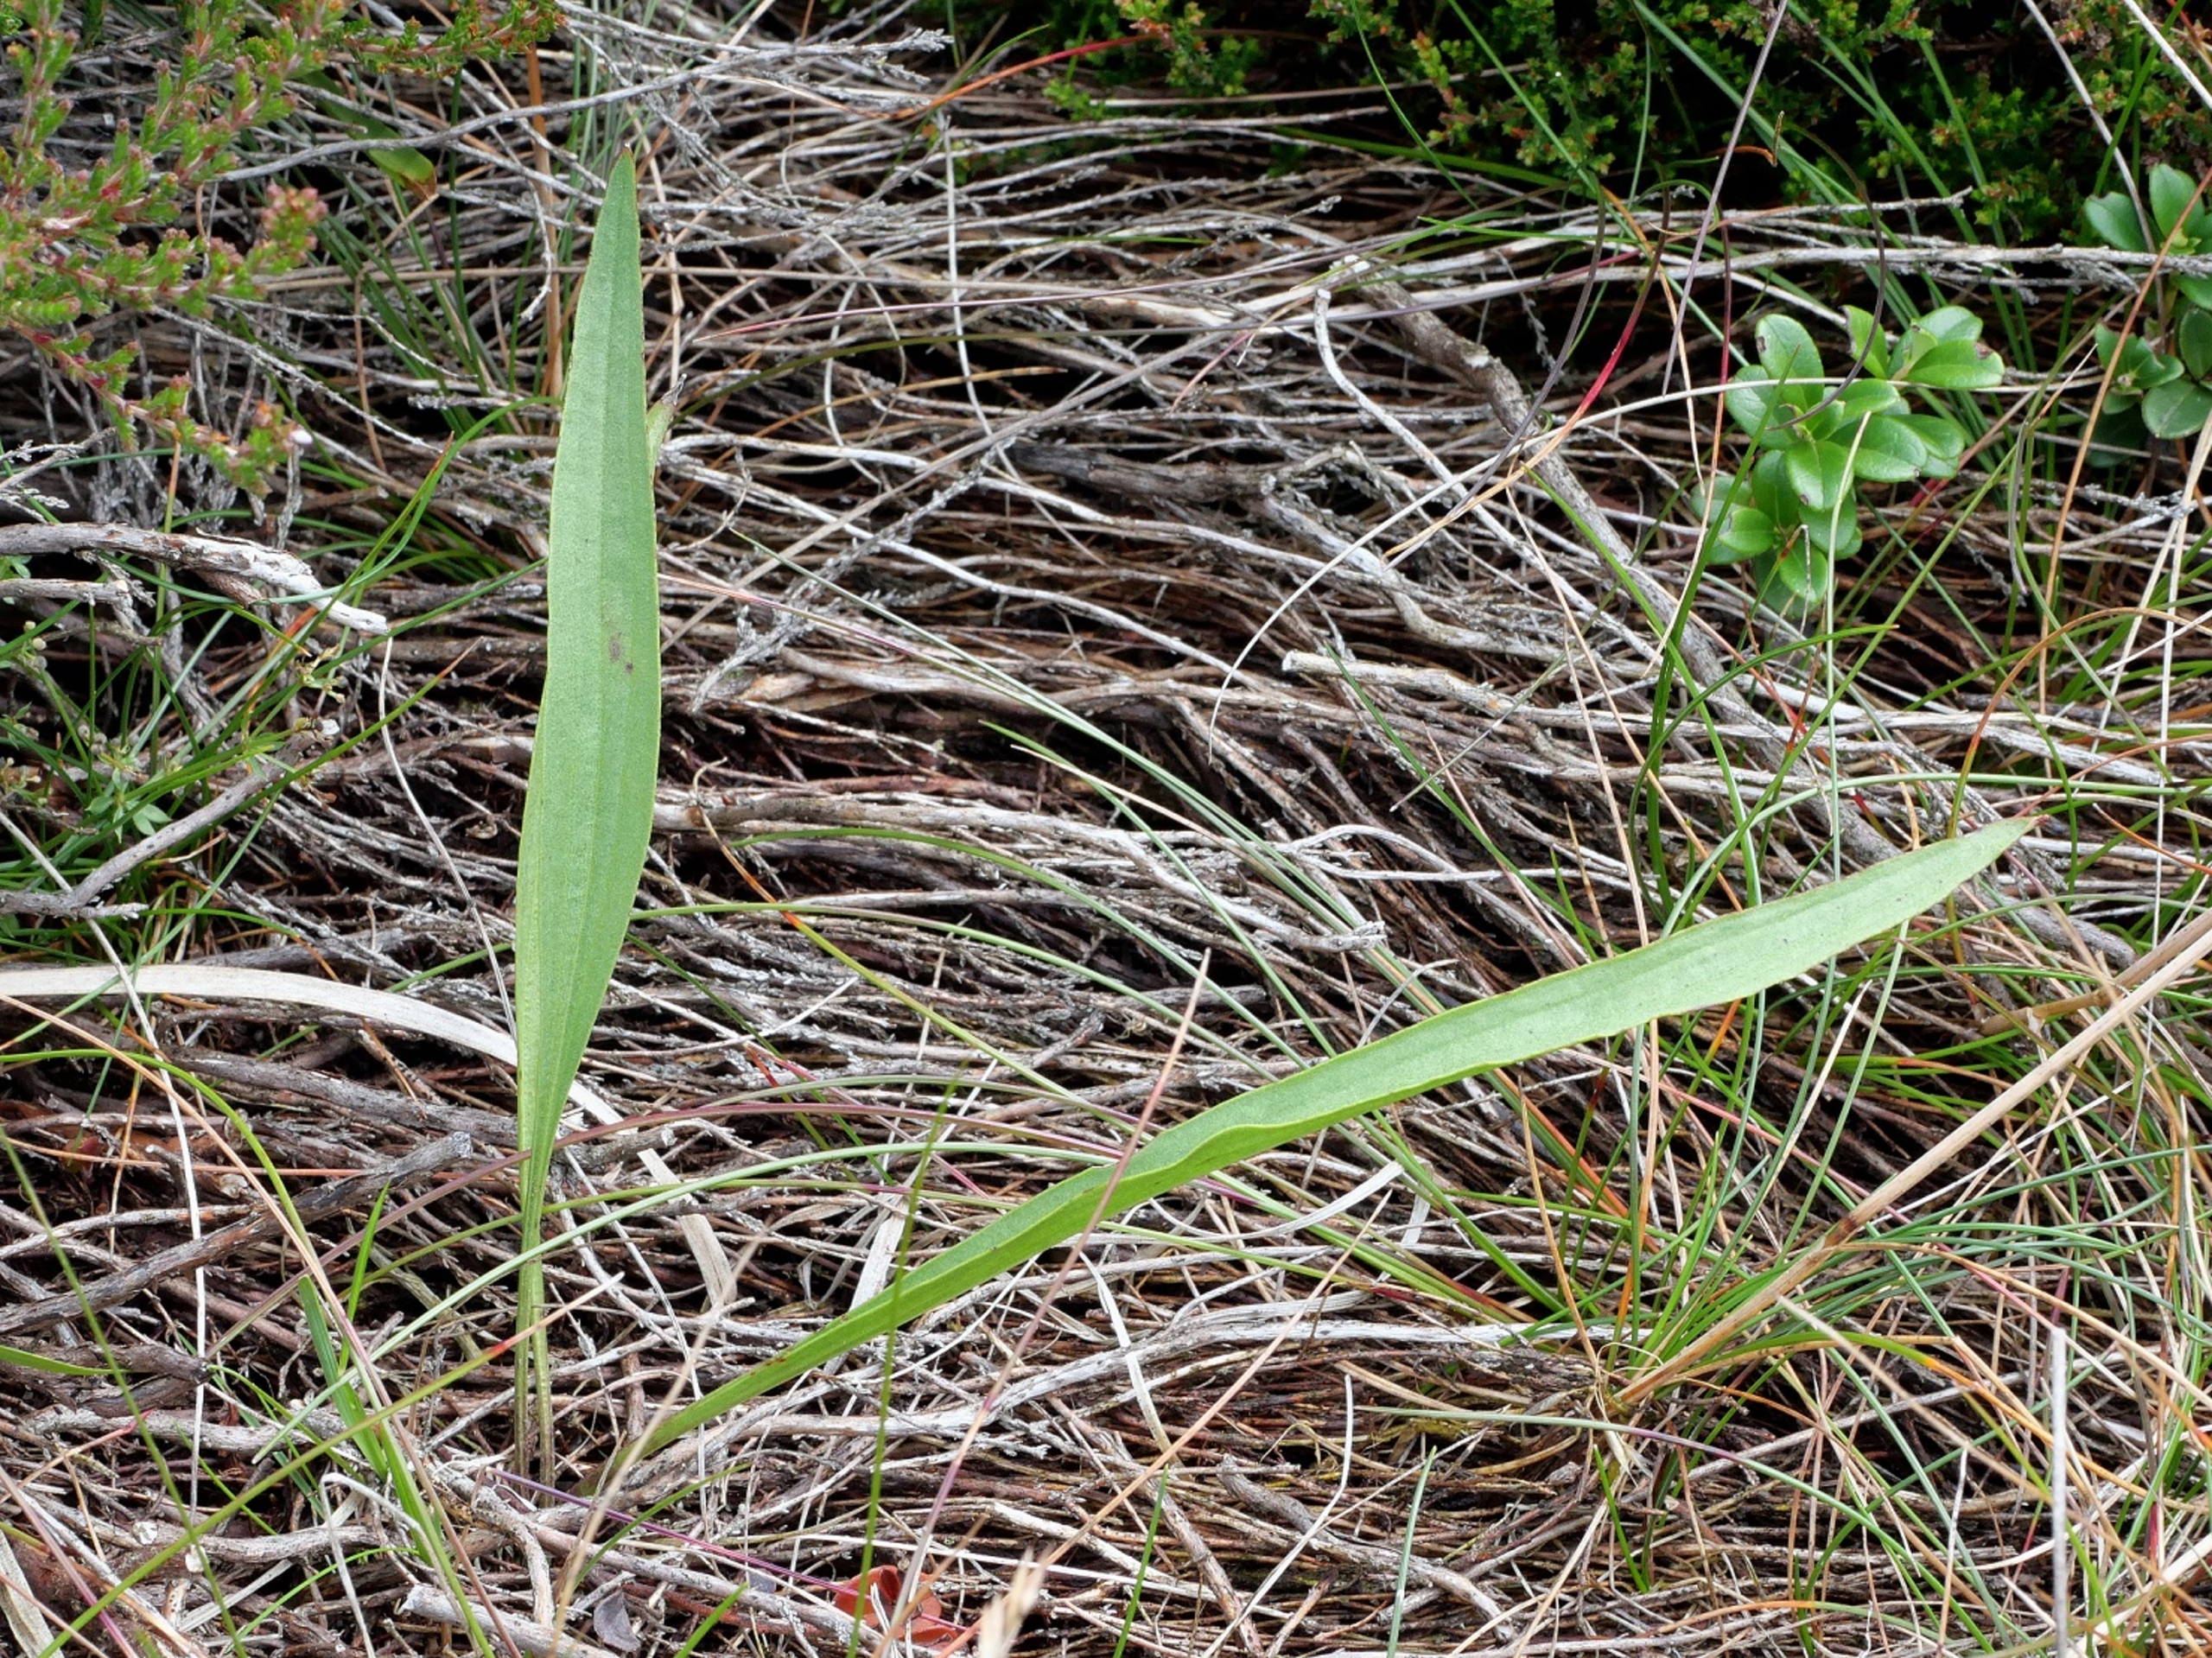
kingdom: Plantae
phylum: Tracheophyta
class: Magnoliopsida
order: Asterales
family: Asteraceae
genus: Scorzonera
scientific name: Scorzonera humilis
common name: Lav skorsoner
